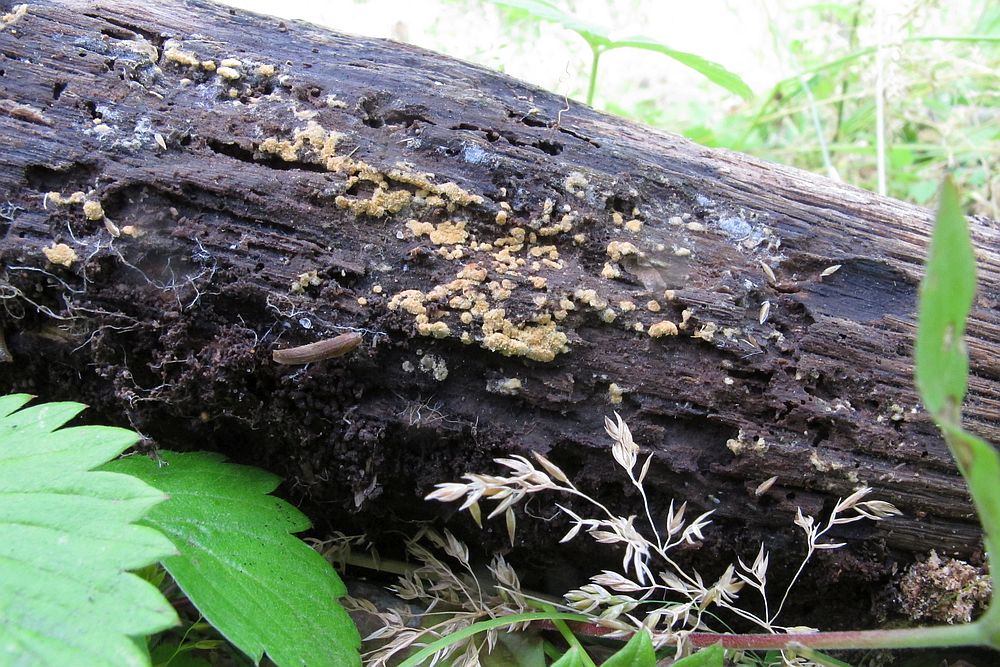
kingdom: Fungi
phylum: Basidiomycota
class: Agaricomycetes
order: Cantharellales
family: Botryobasidiaceae
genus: Botryobasidium
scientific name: Botryobasidium aureum
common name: gylden spindhinde
